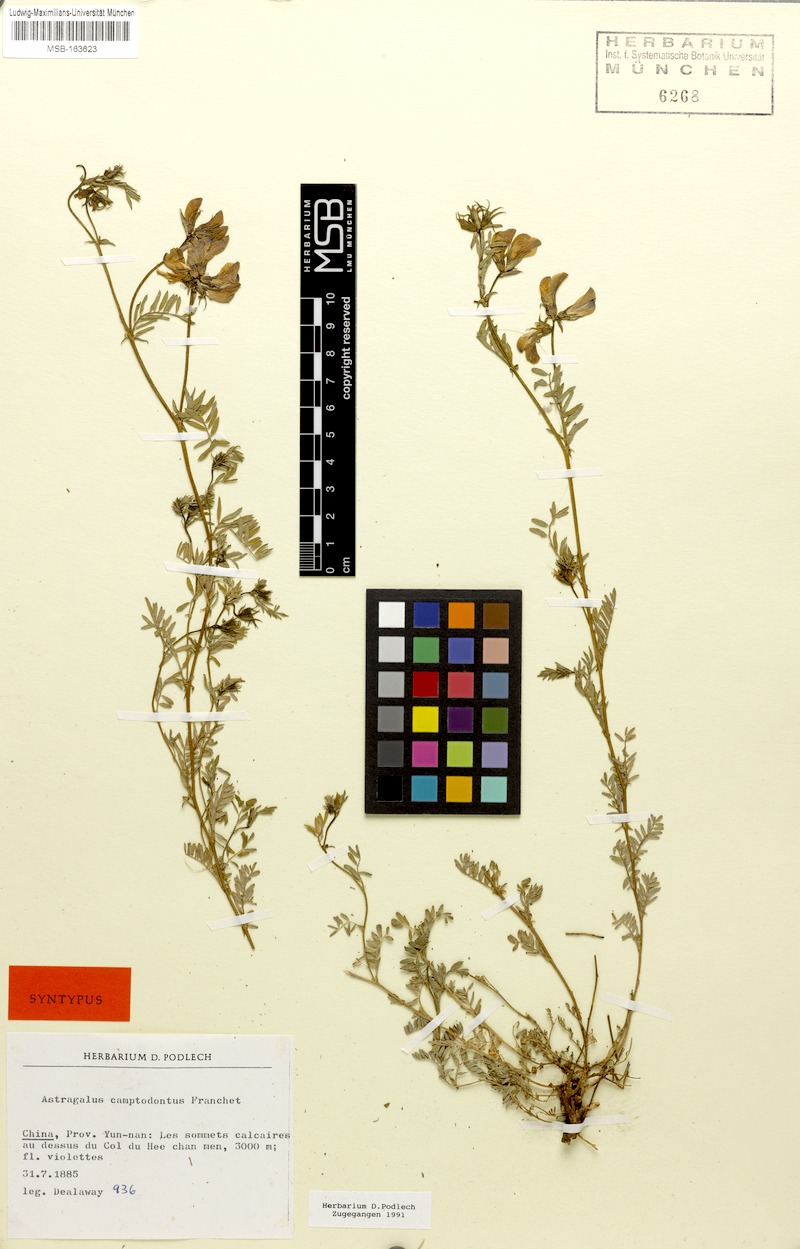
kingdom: Plantae
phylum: Tracheophyta
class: Magnoliopsida
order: Fabales
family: Fabaceae
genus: Phyllolobium
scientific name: Phyllolobium camptodontum
